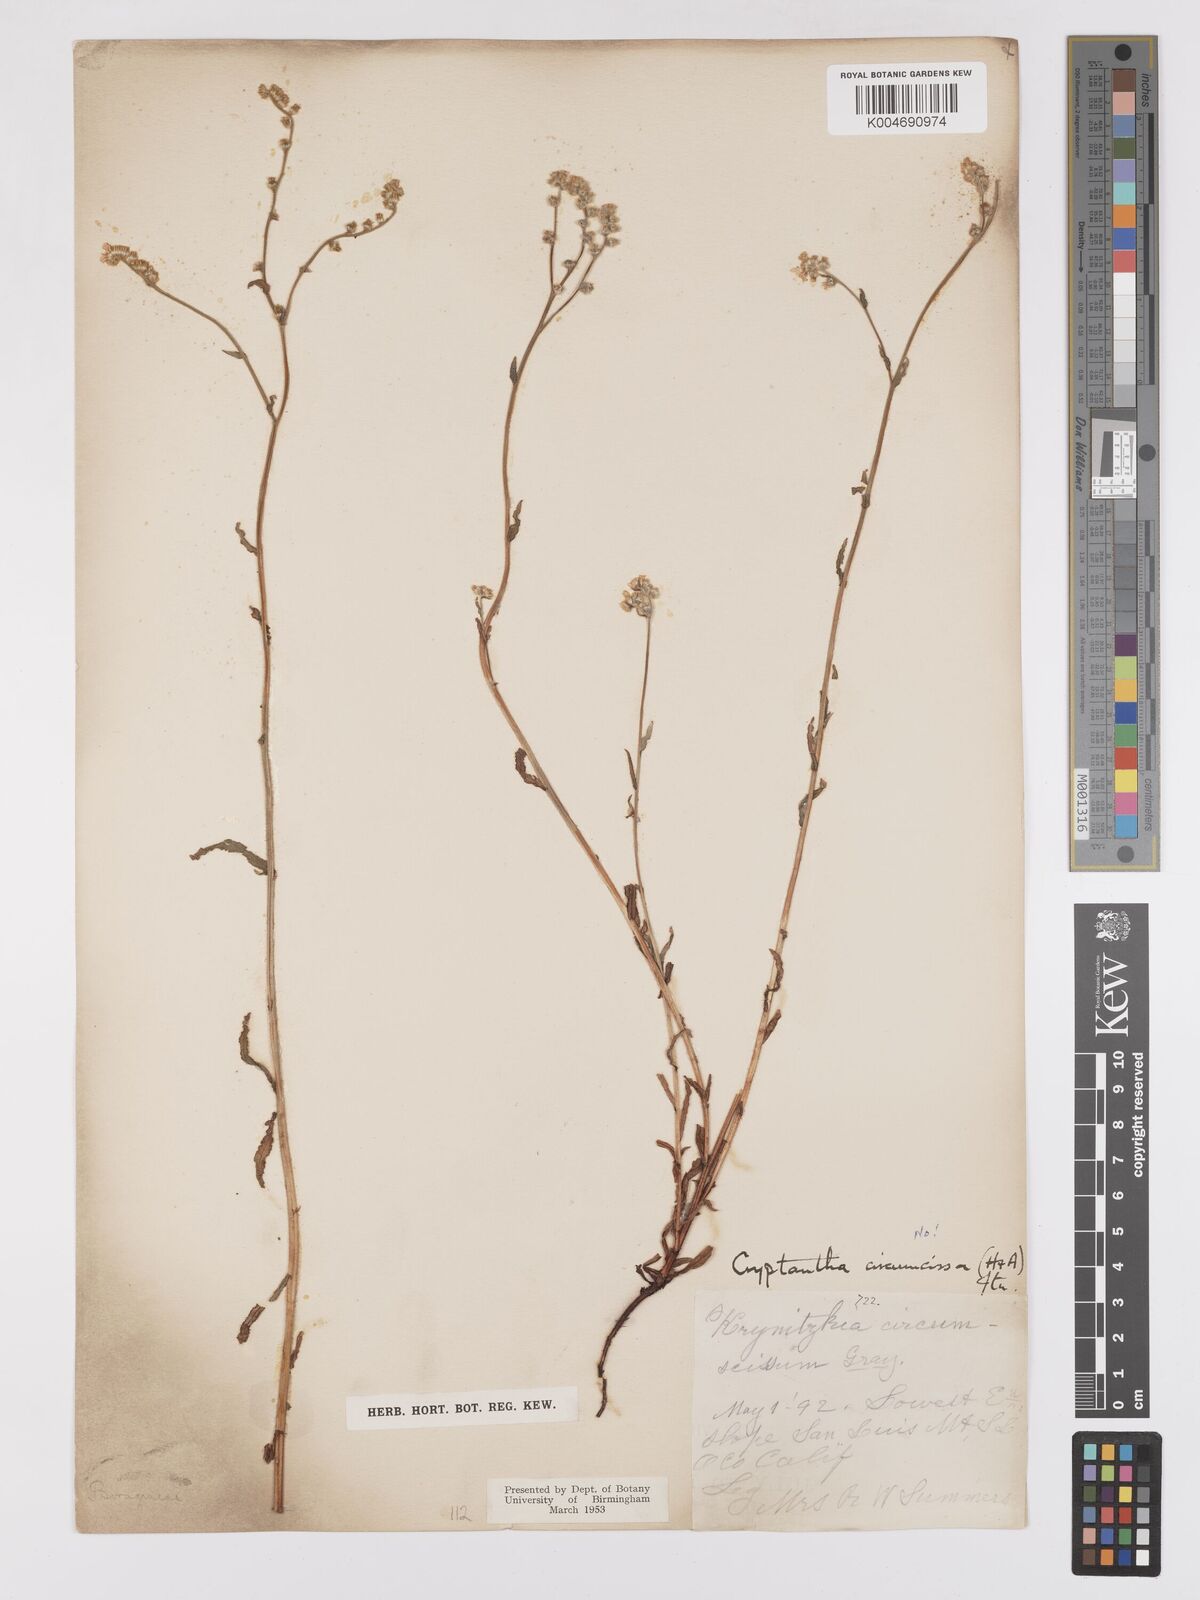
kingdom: Plantae
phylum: Tracheophyta
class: Magnoliopsida
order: Boraginales
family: Boraginaceae
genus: Greeneocharis
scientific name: Greeneocharis circumscissa
